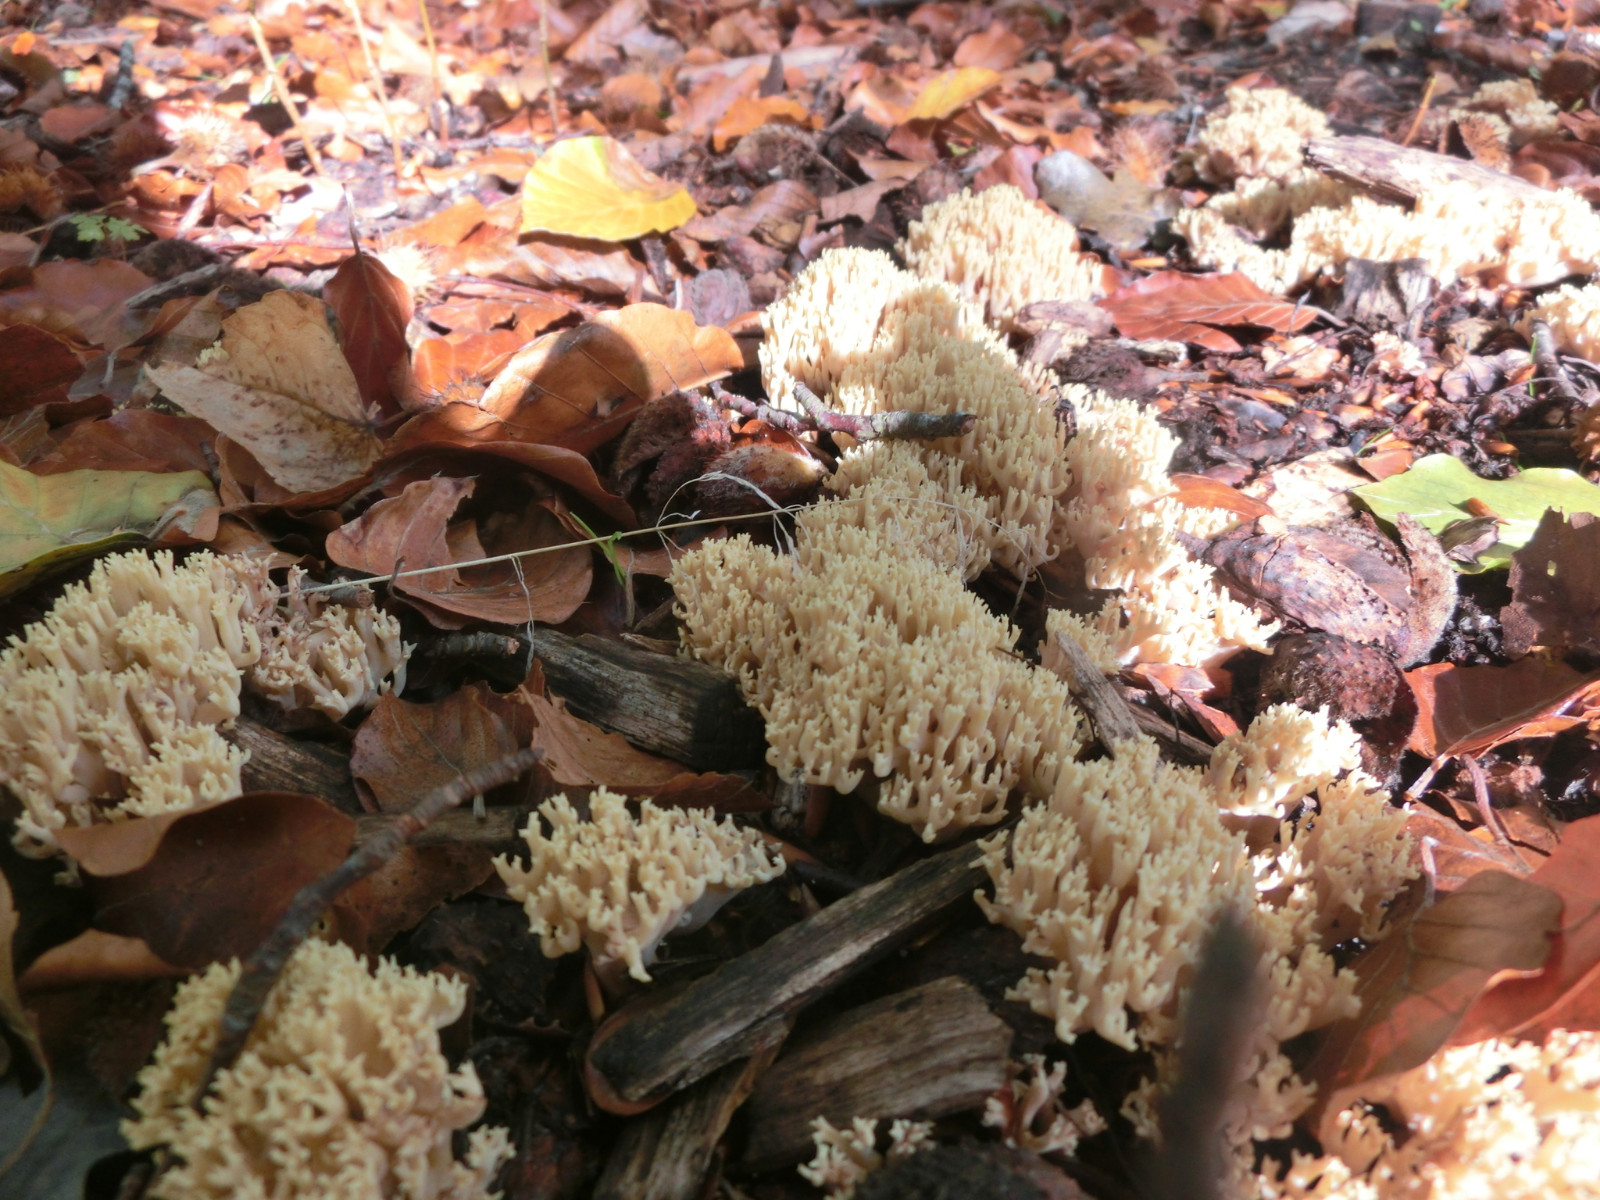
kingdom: Fungi
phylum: Basidiomycota
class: Agaricomycetes
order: Gomphales
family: Gomphaceae
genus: Ramaria
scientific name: Ramaria
